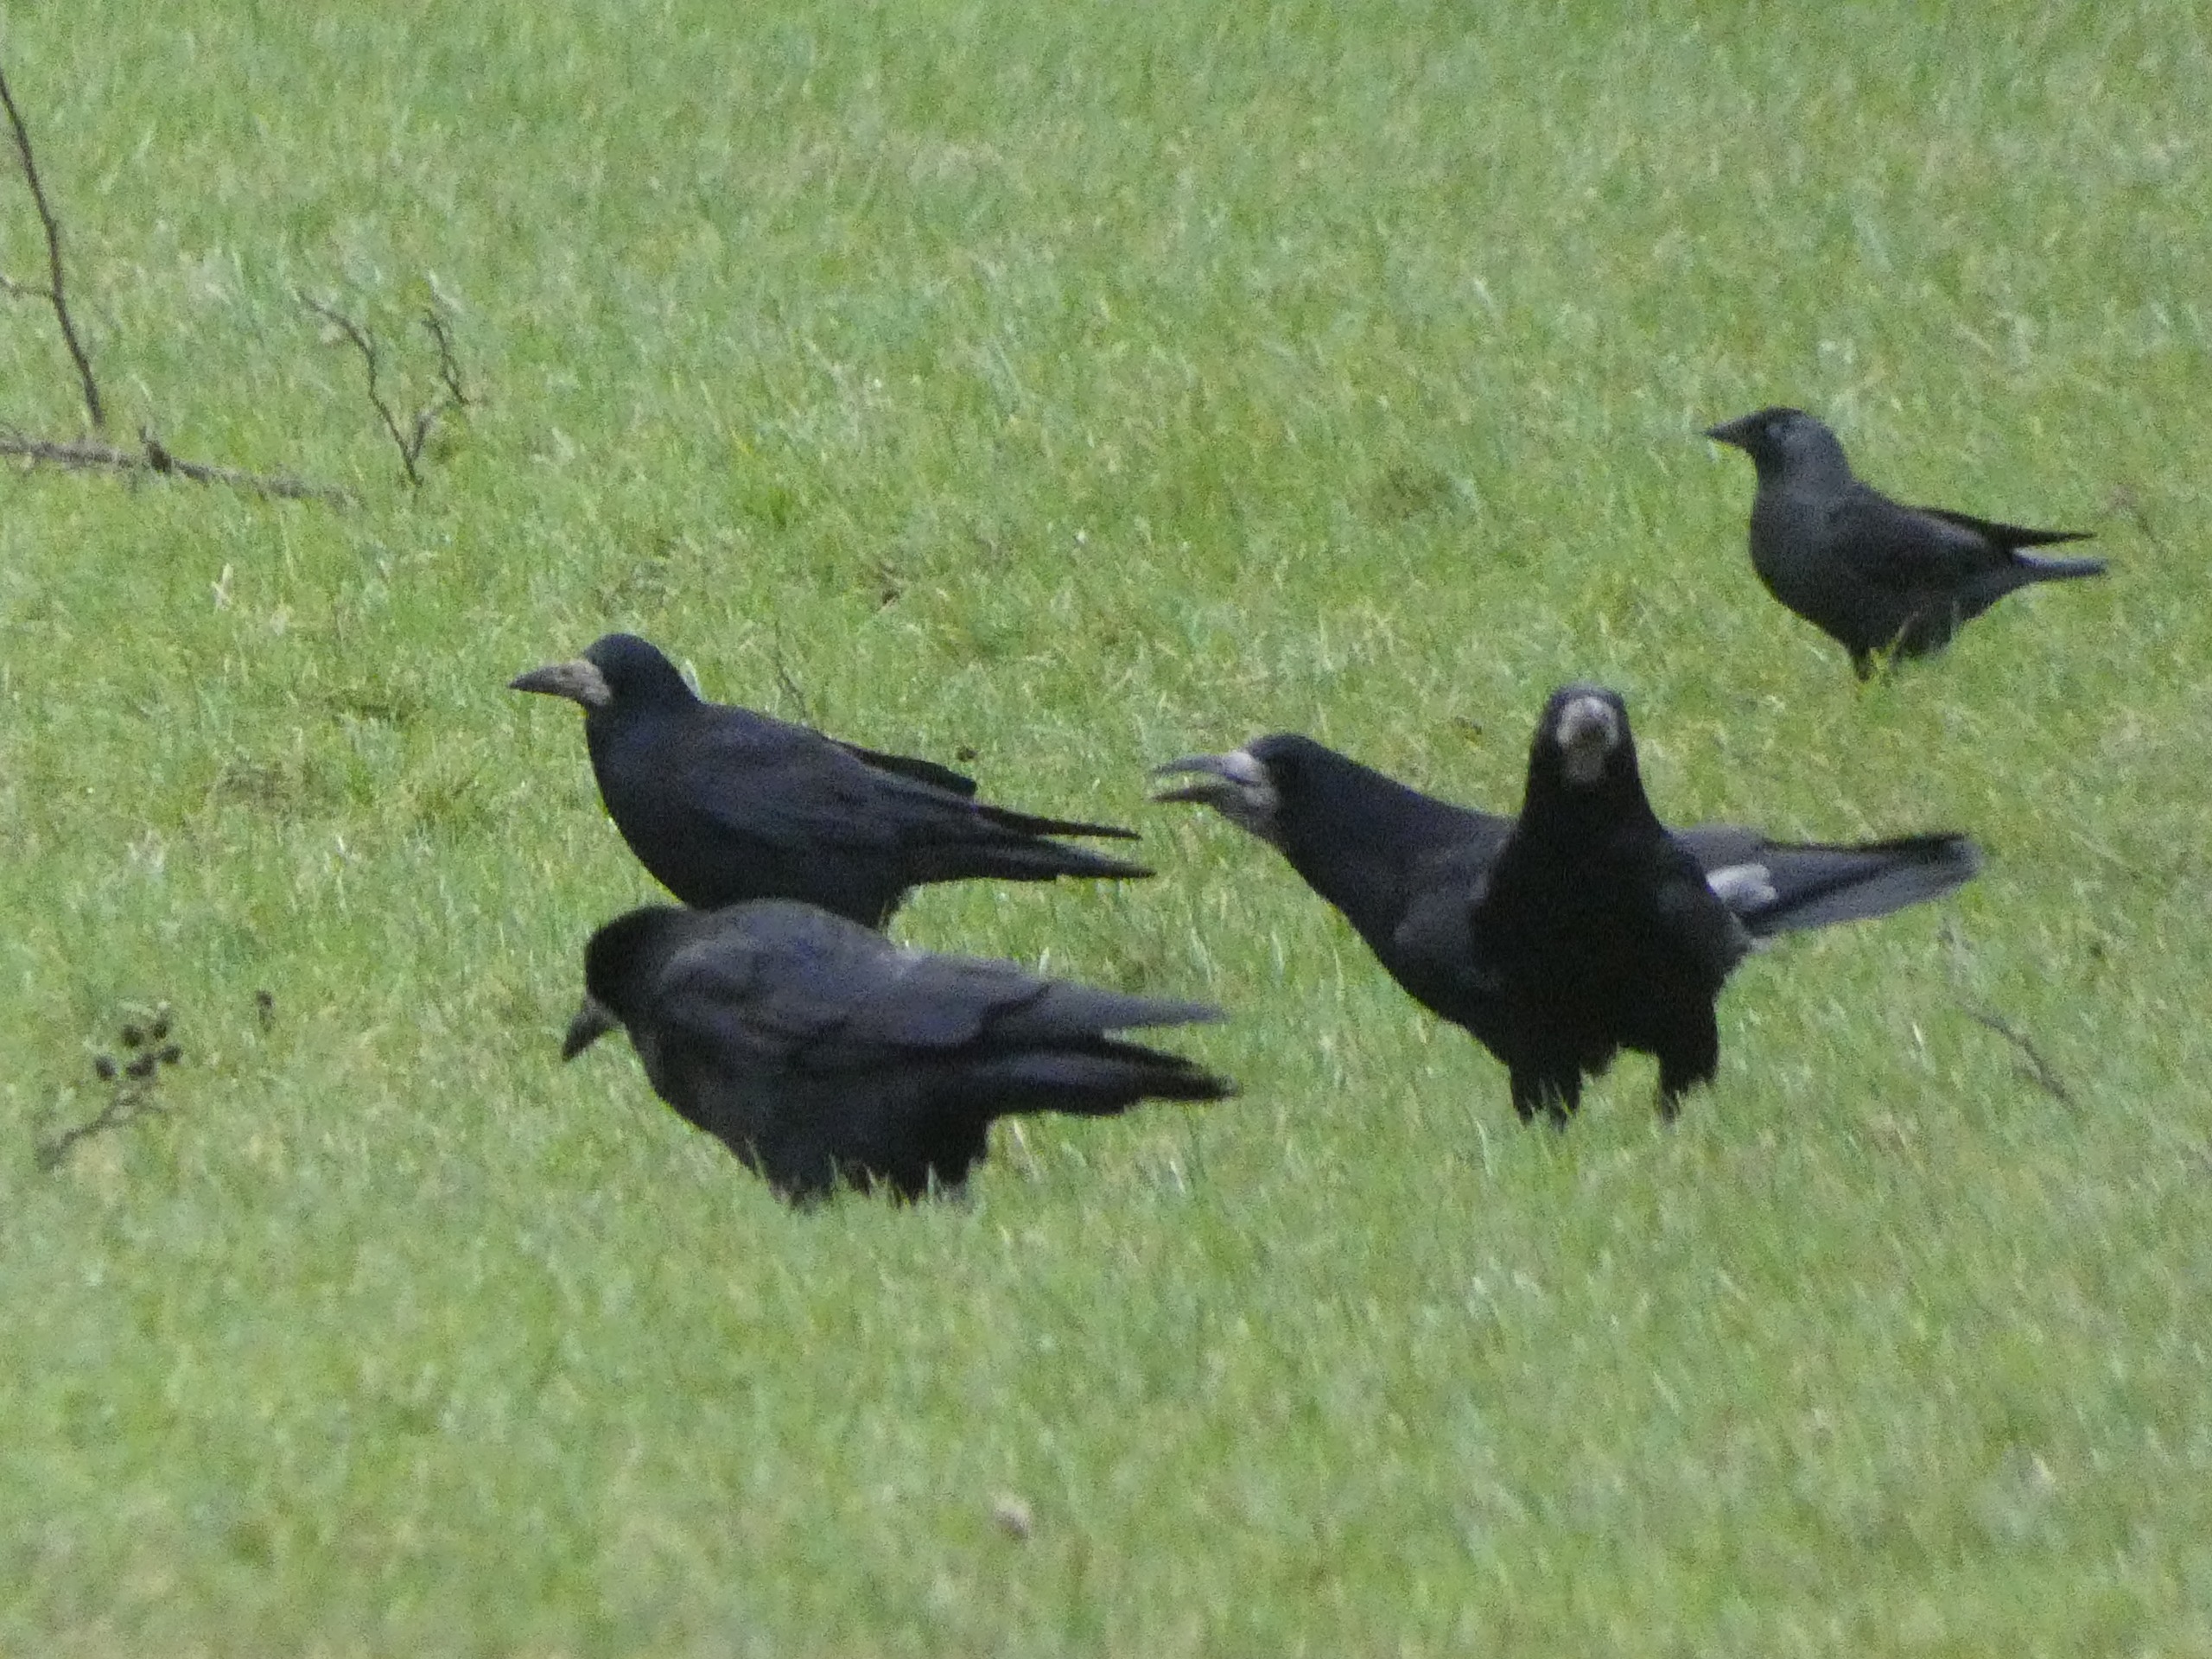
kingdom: Animalia
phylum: Chordata
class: Aves
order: Passeriformes
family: Corvidae
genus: Corvus
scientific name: Corvus frugilegus
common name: Råge
